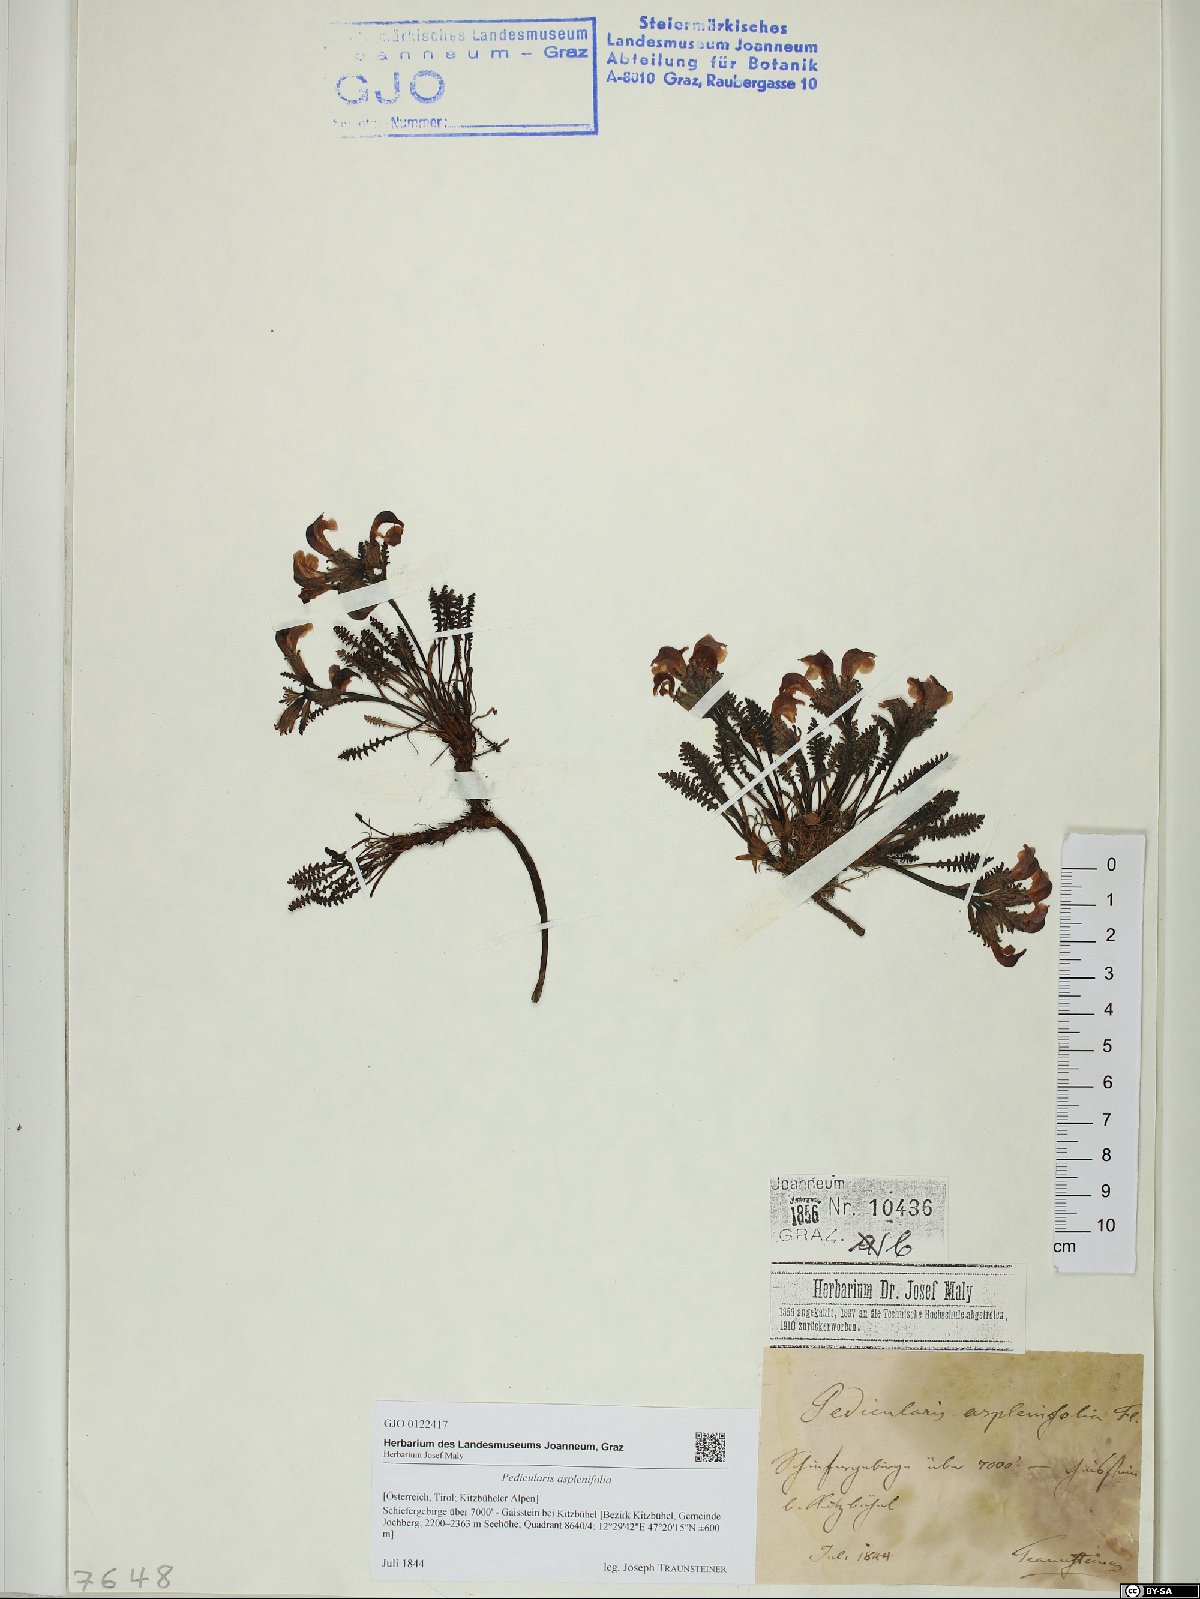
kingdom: Plantae
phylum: Tracheophyta
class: Magnoliopsida
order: Lamiales
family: Orobanchaceae
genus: Pedicularis
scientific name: Pedicularis asplenifolia
